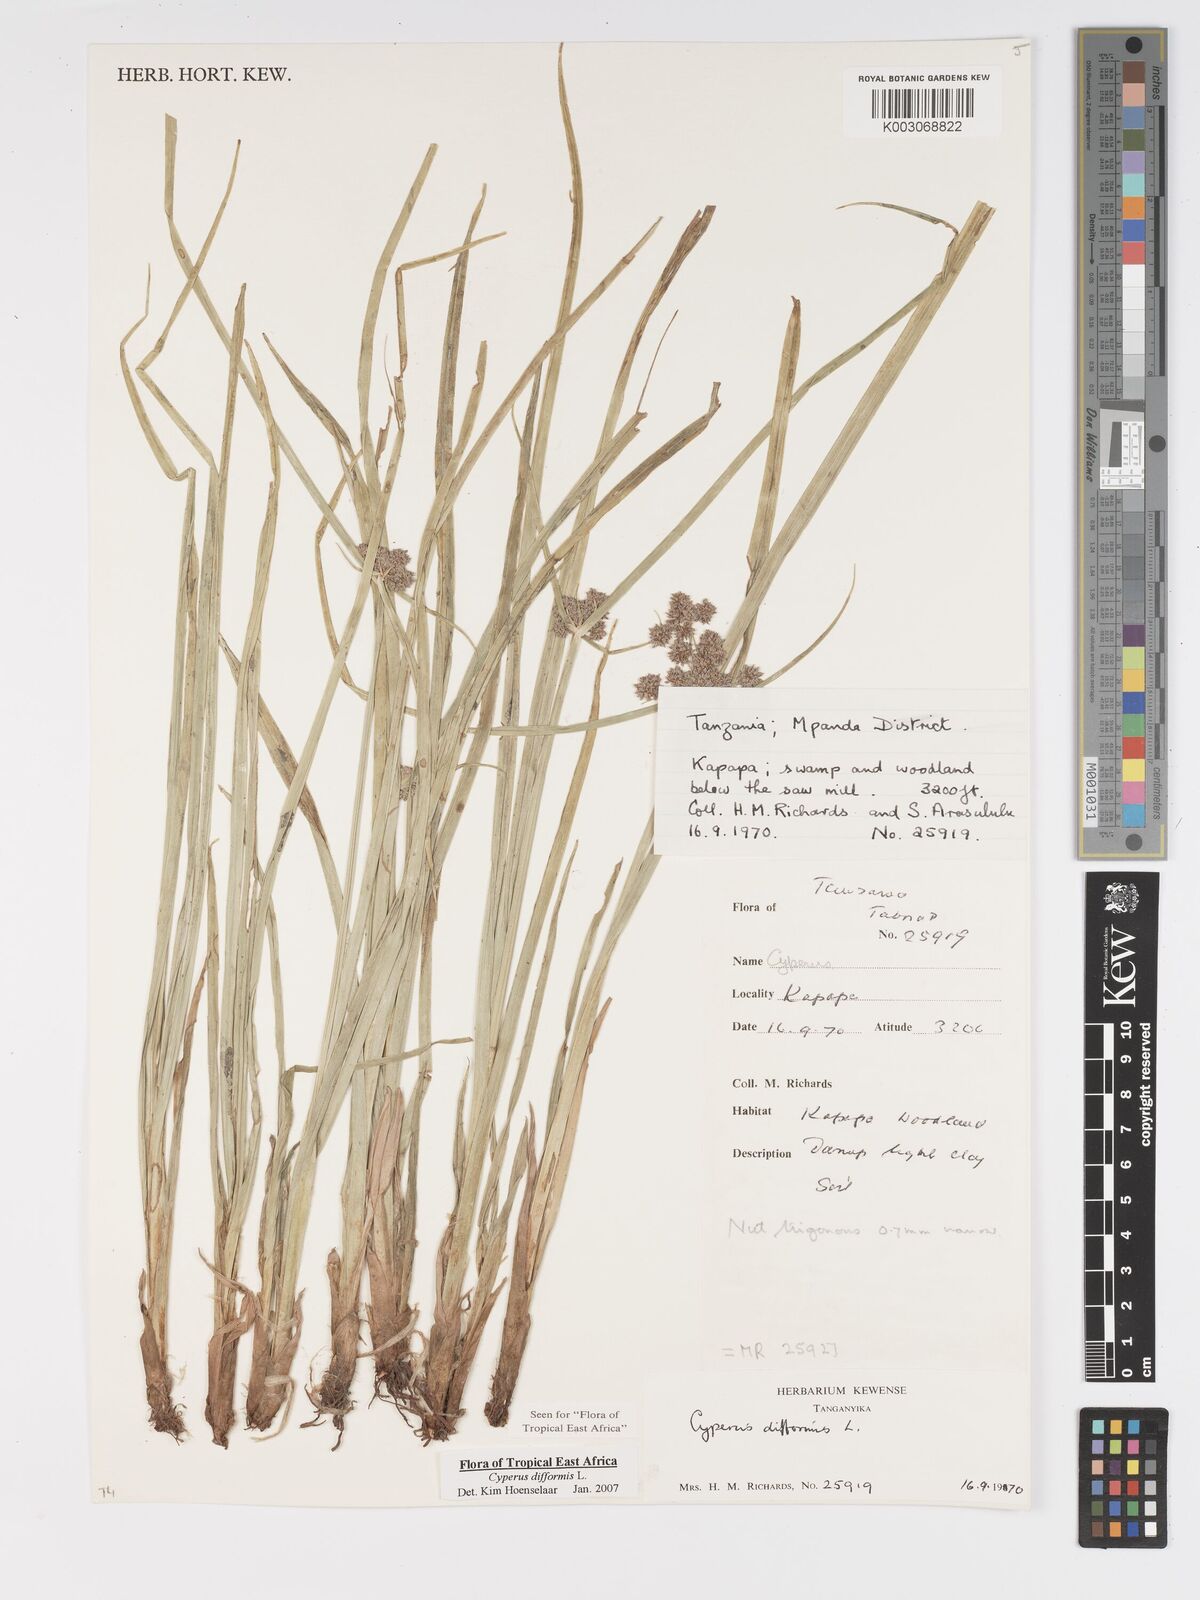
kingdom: Plantae
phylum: Tracheophyta
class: Liliopsida
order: Poales
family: Cyperaceae
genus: Cyperus
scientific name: Cyperus difformis
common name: Variable flatsedge
